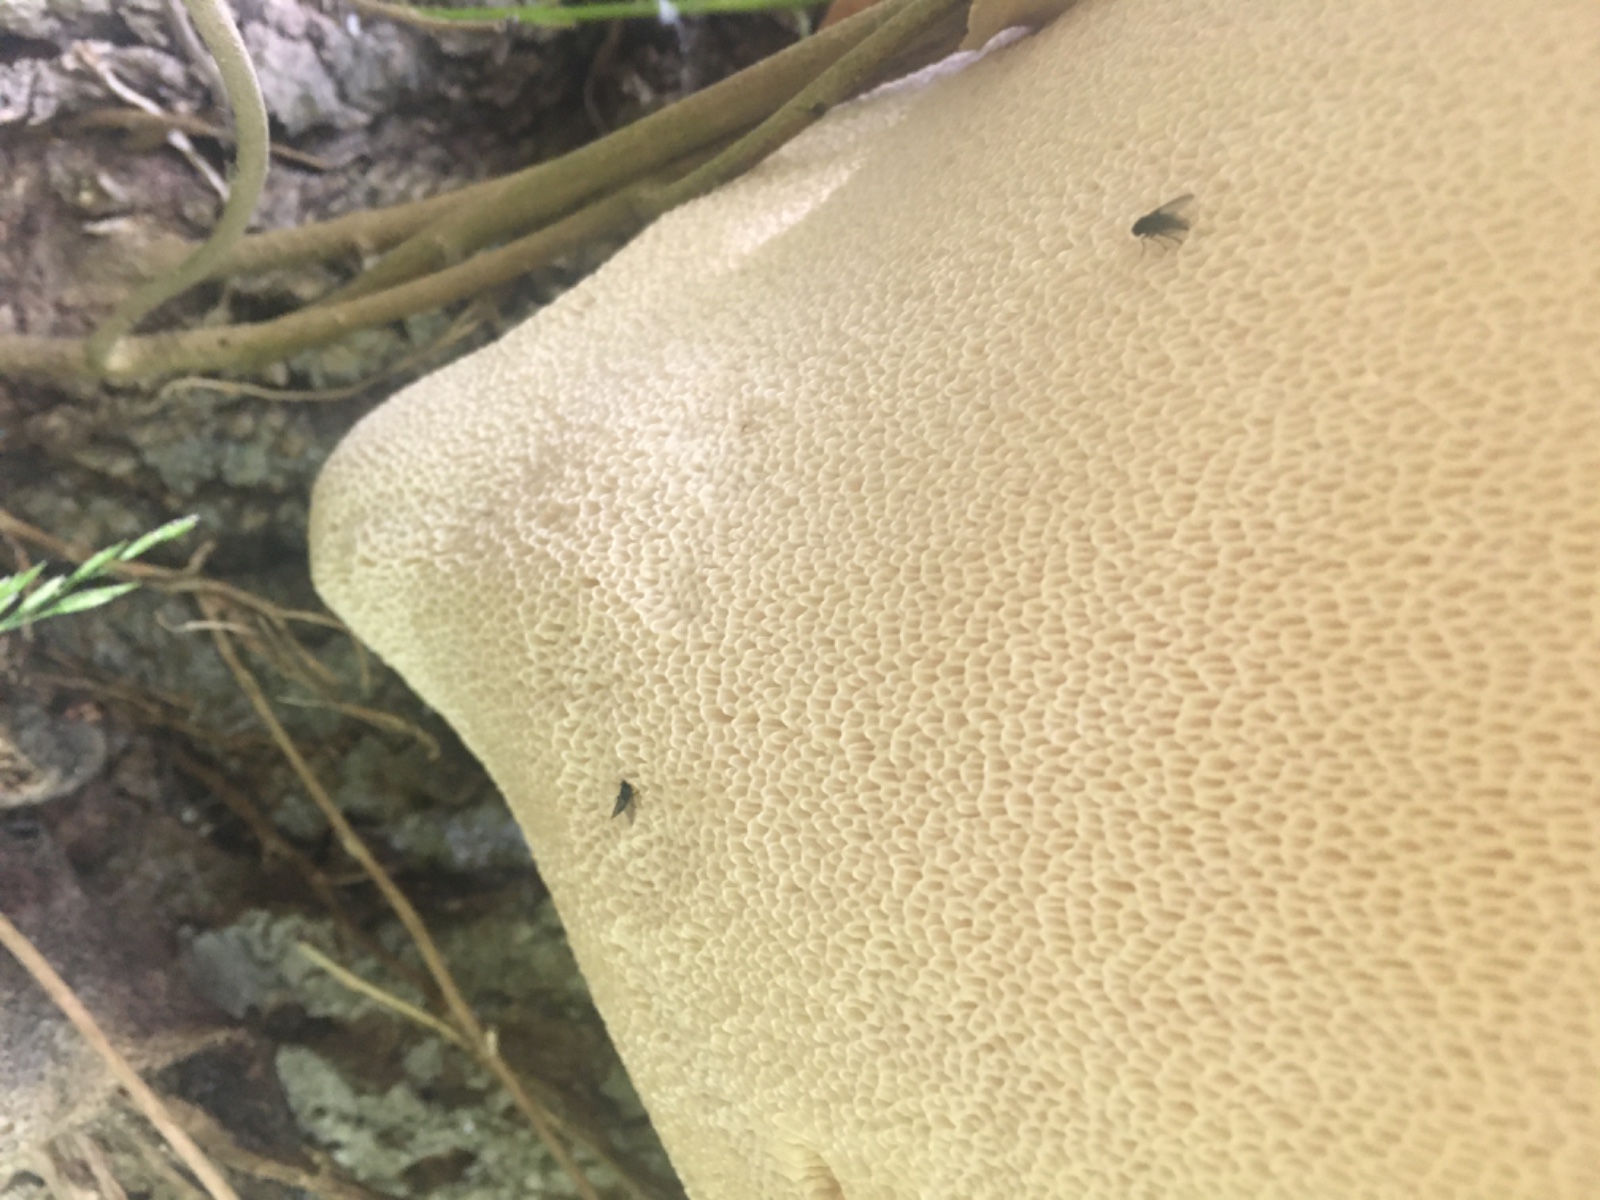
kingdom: Fungi
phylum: Basidiomycota
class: Agaricomycetes
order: Polyporales
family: Polyporaceae
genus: Cerioporus
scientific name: Cerioporus squamosus
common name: skællet stilkporesvamp
